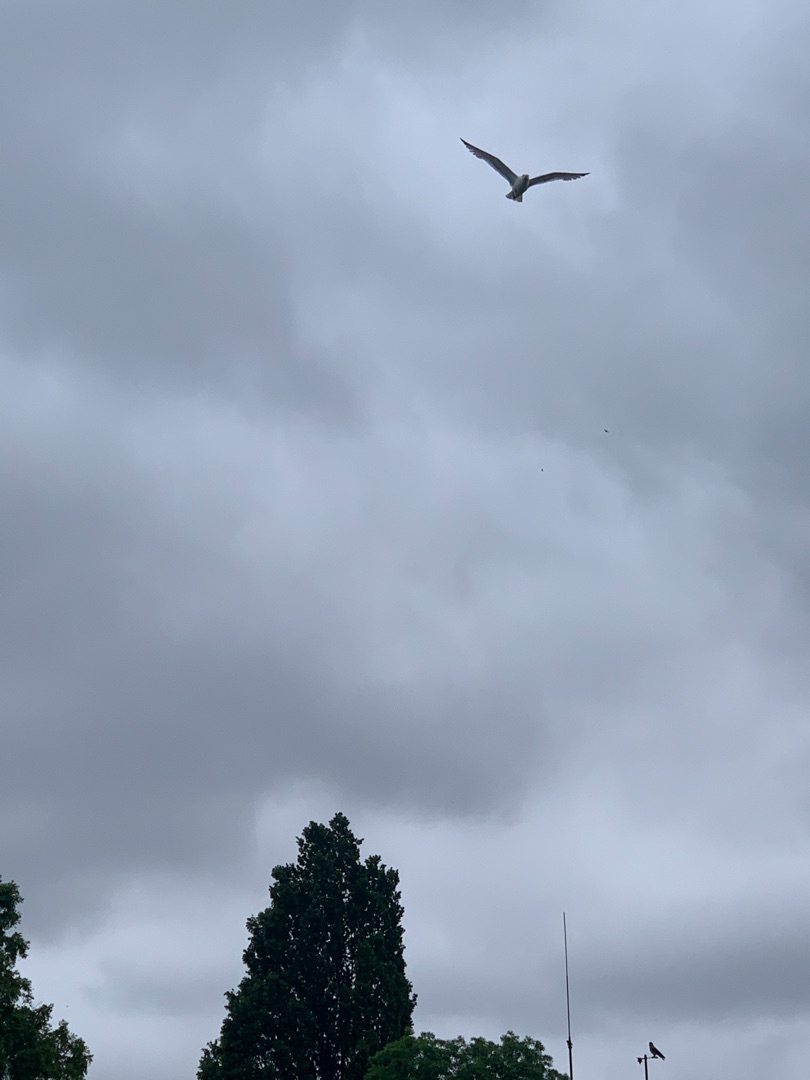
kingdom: Animalia
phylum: Chordata
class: Aves
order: Charadriiformes
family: Laridae
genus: Larus
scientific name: Larus argentatus
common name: Sølvmåge
